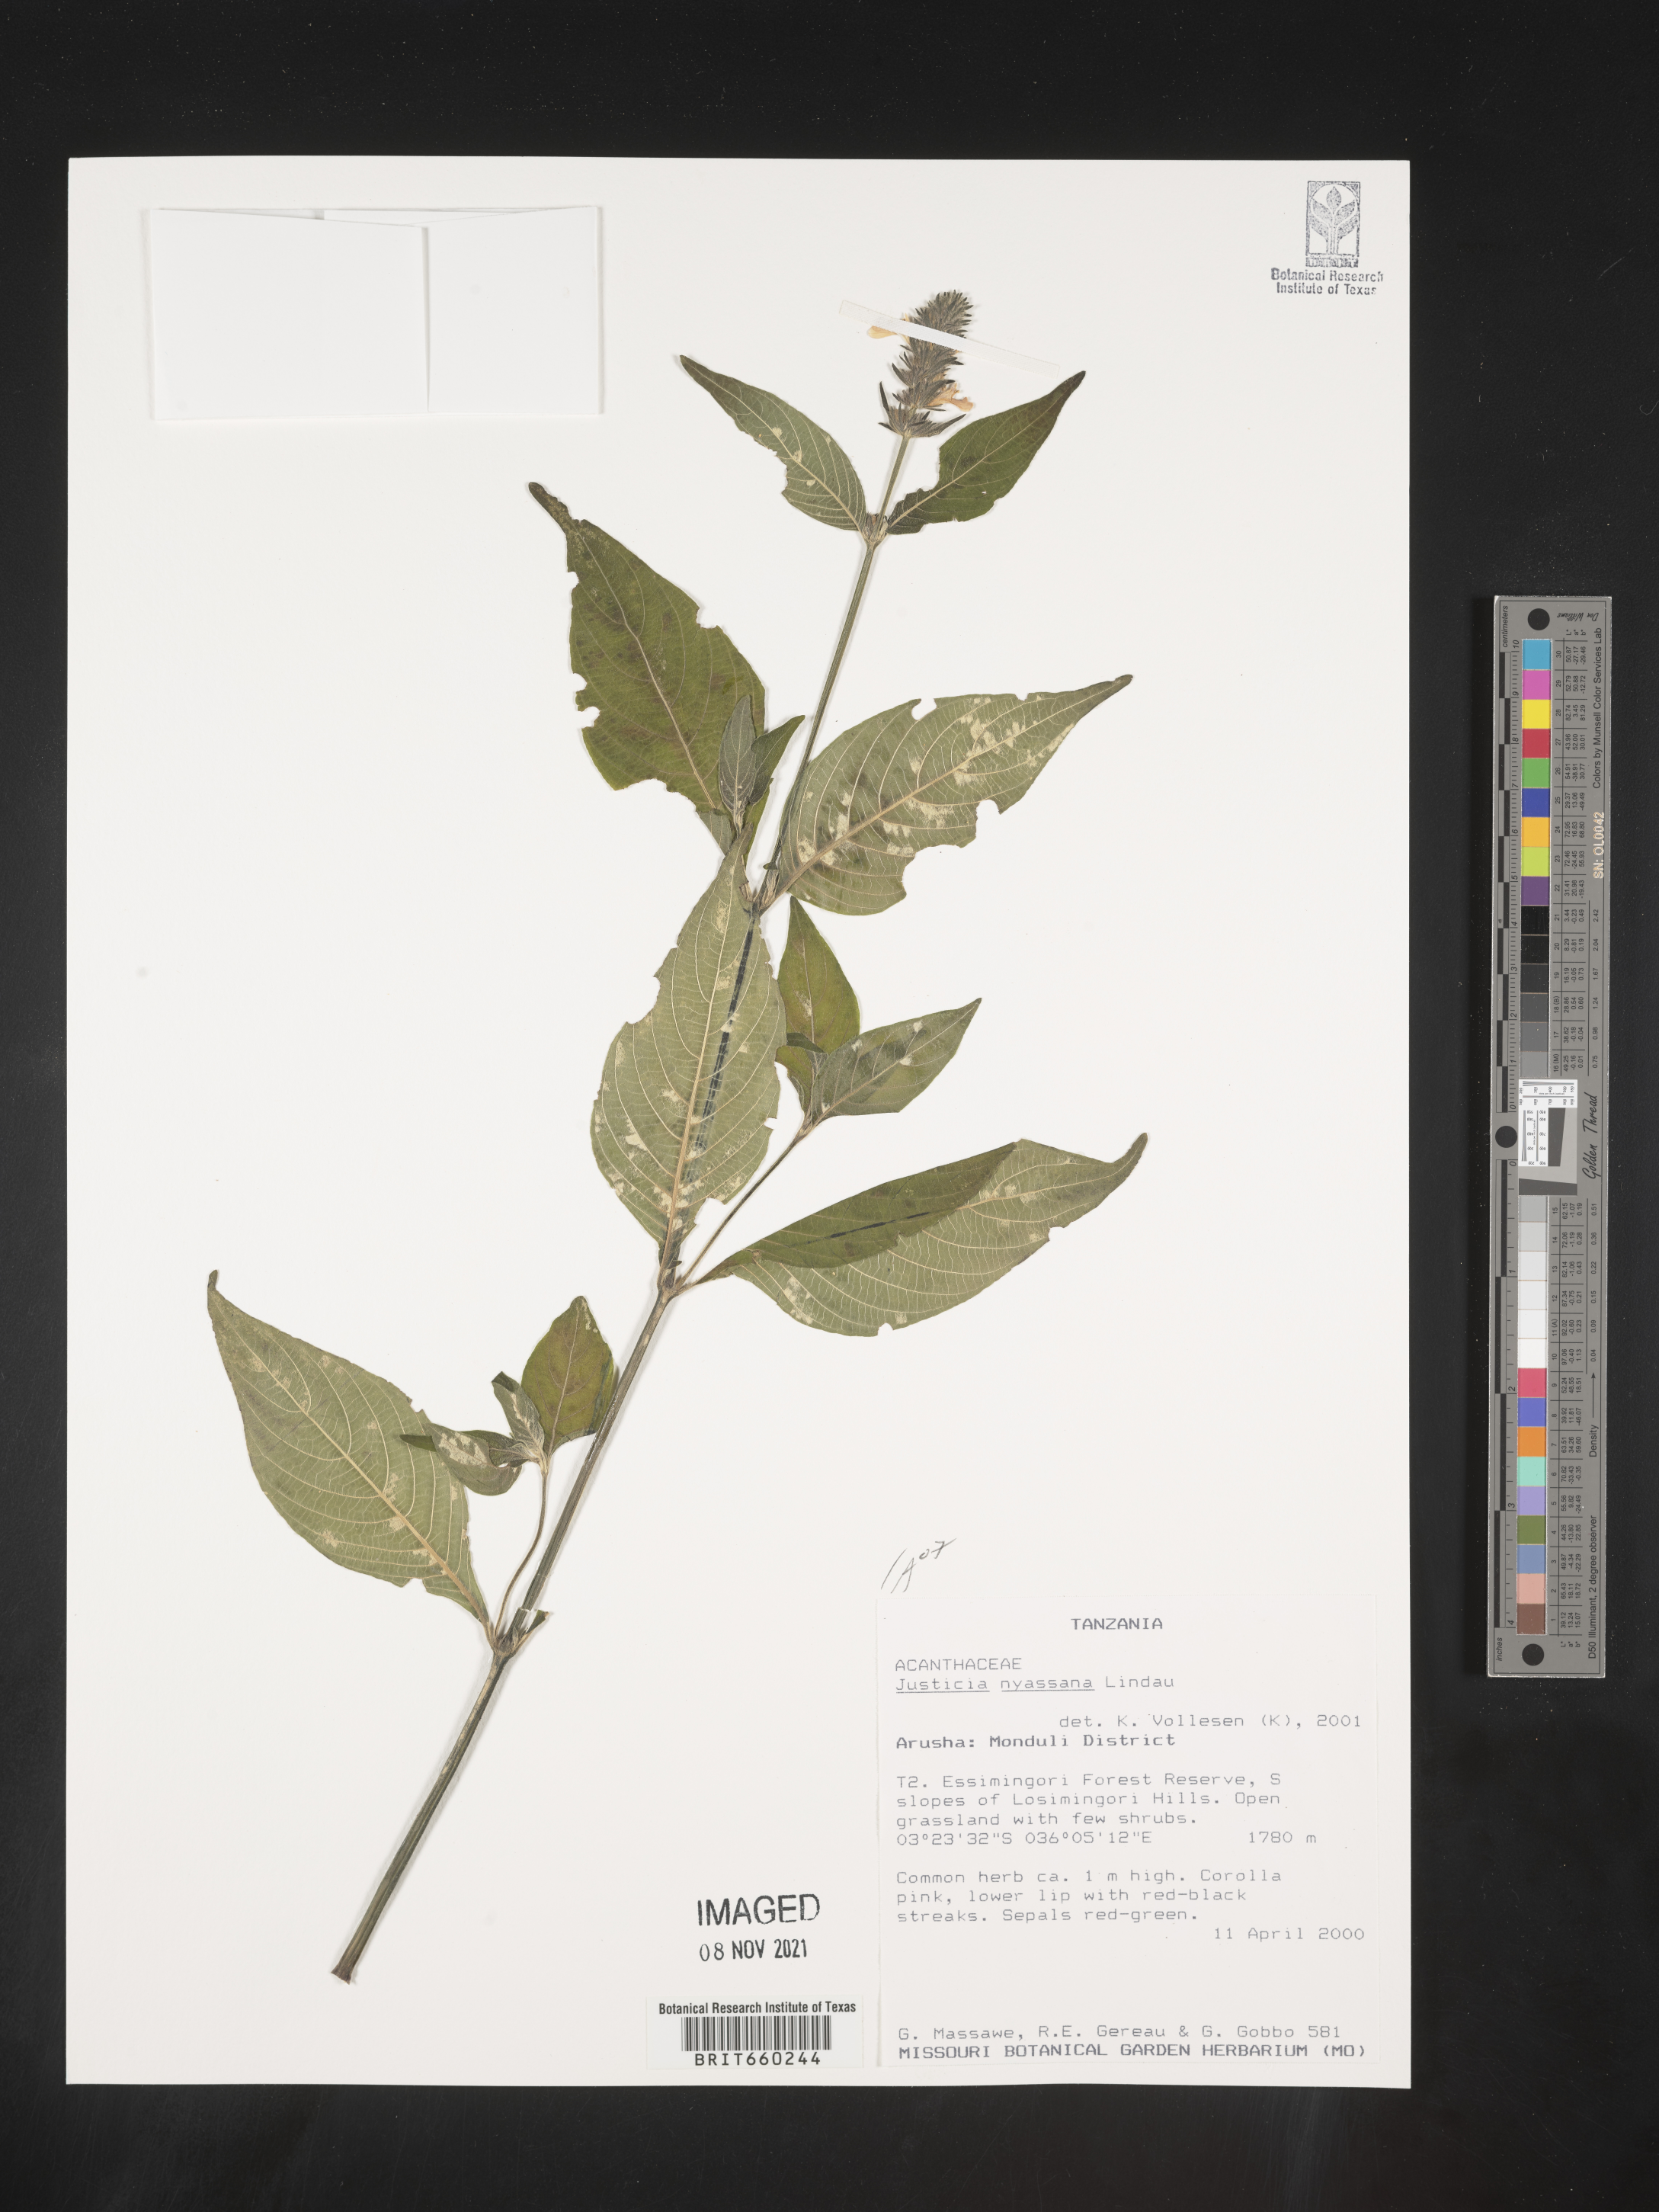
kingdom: Plantae
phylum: Tracheophyta
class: Magnoliopsida
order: Lamiales
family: Acanthaceae
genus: Justicia
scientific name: Justicia nyassana
